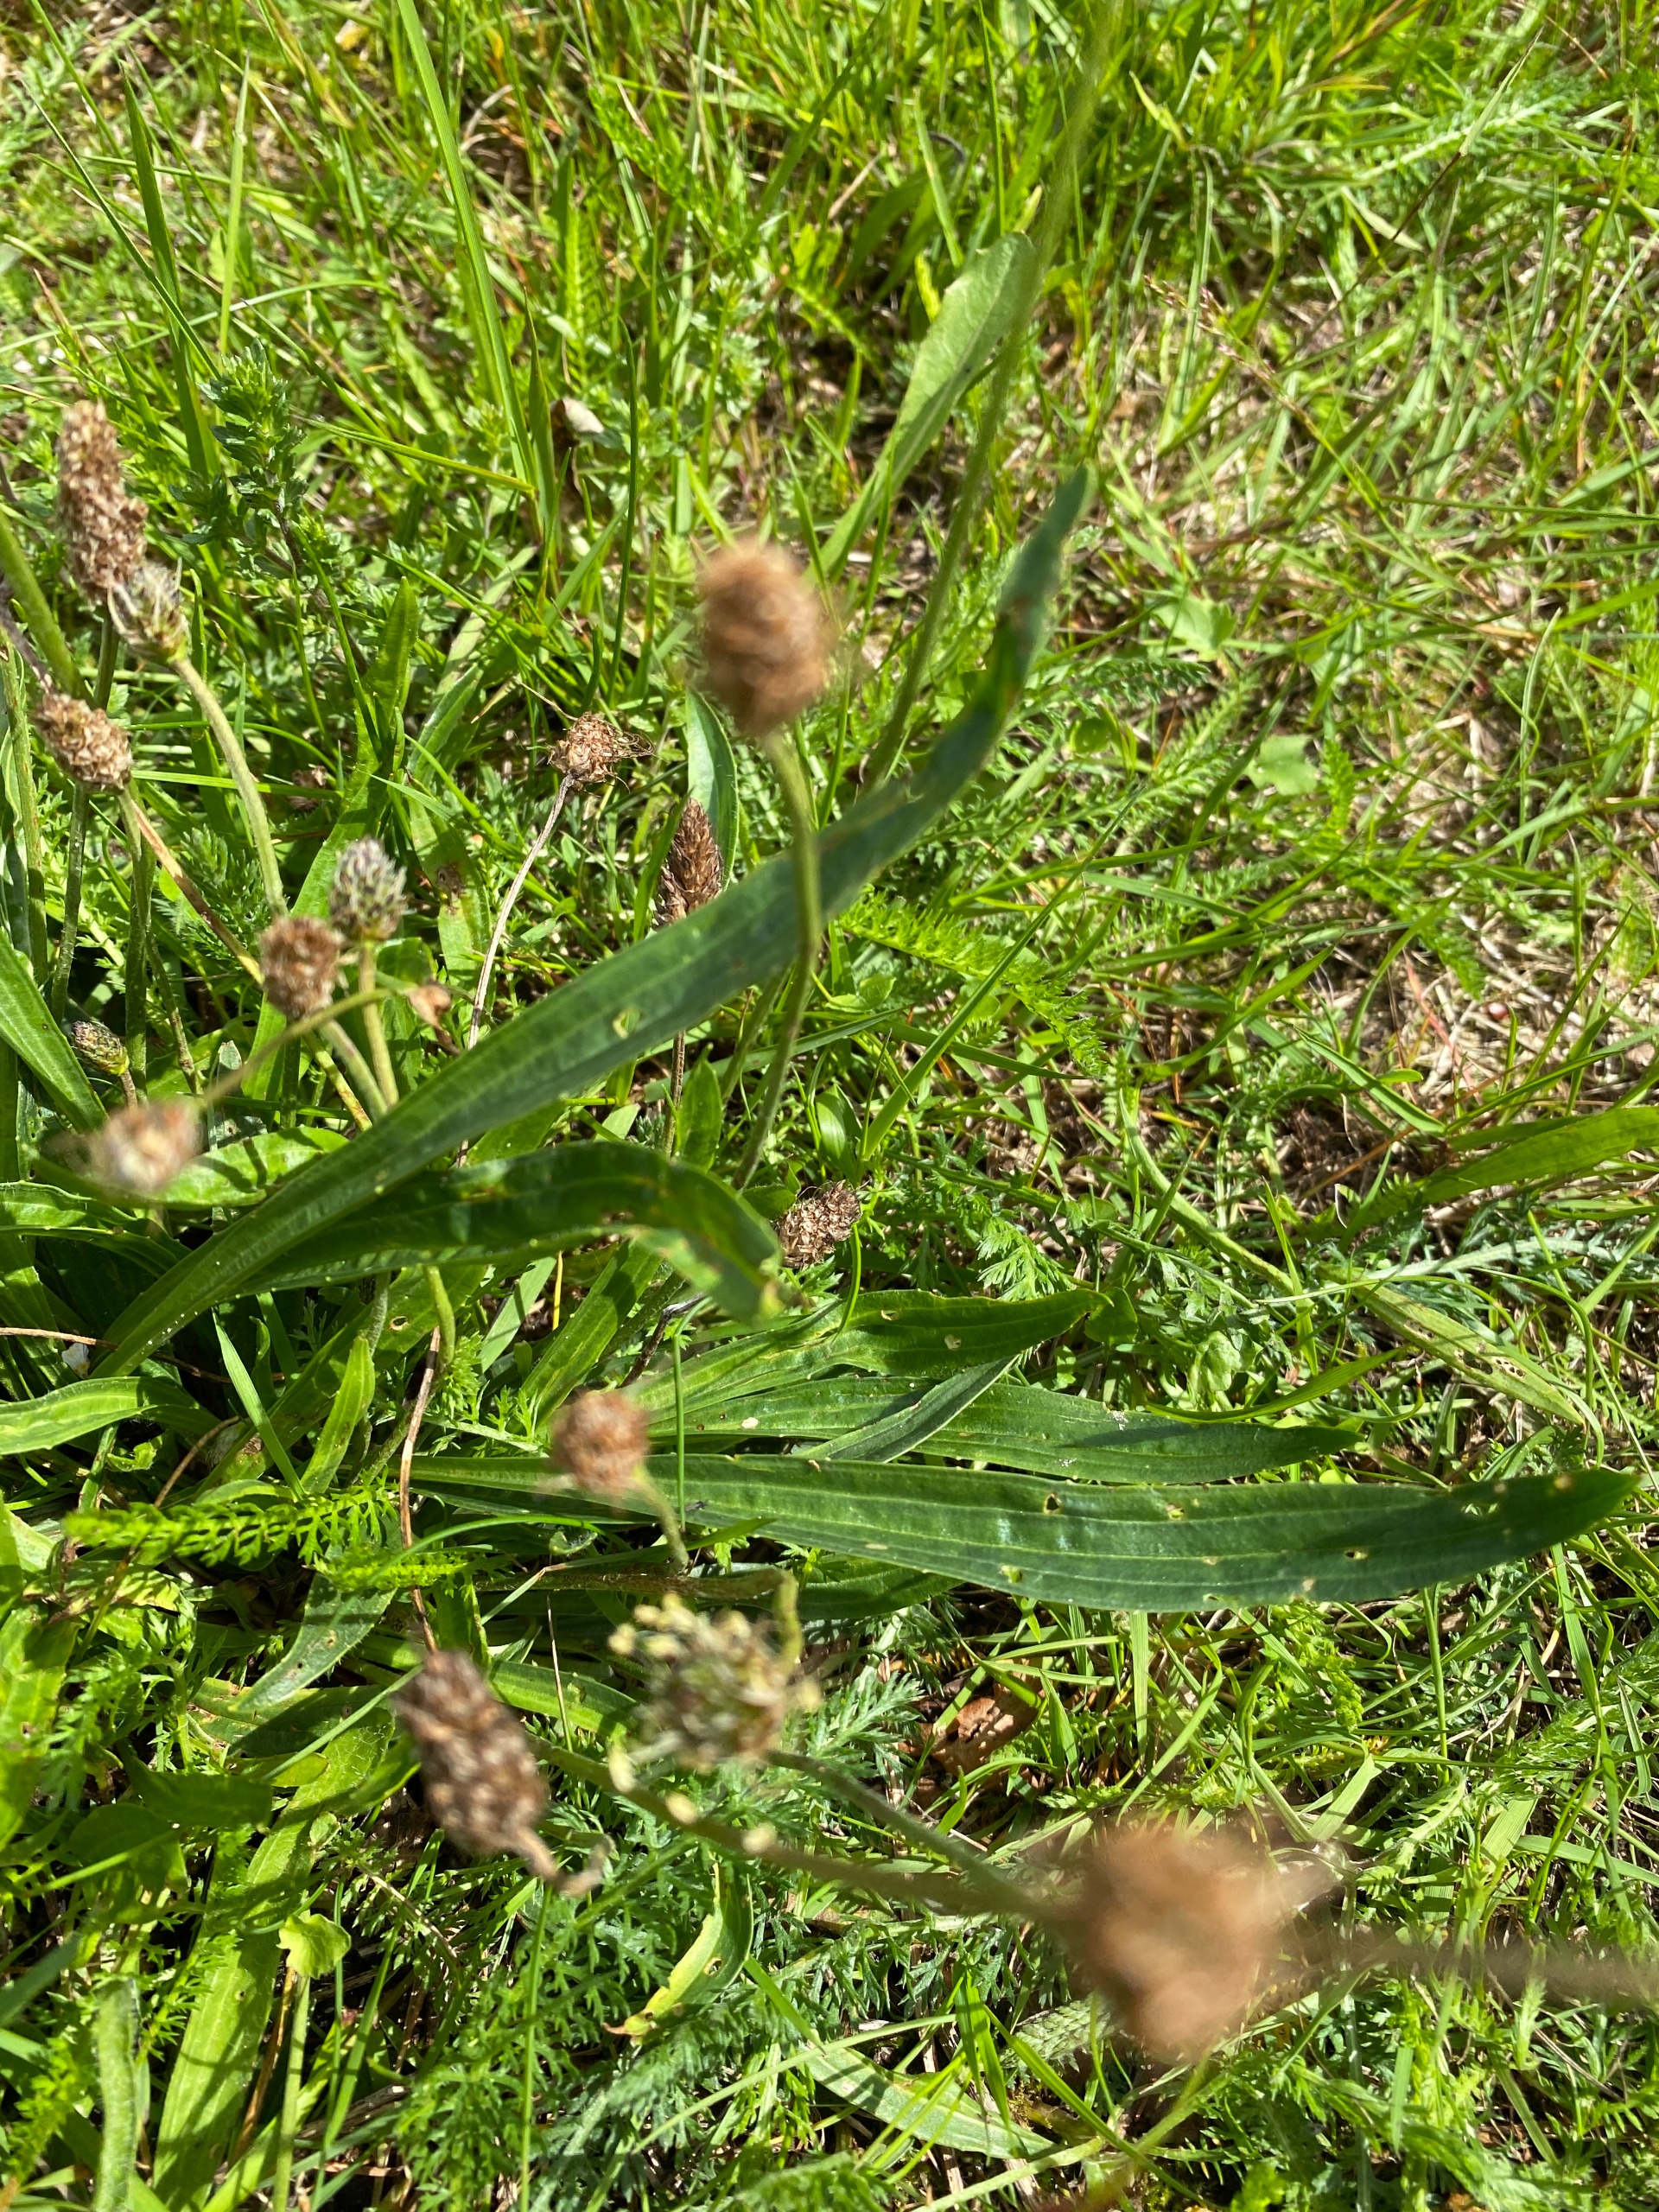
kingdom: Plantae
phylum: Tracheophyta
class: Magnoliopsida
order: Lamiales
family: Plantaginaceae
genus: Plantago
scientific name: Plantago lanceolata
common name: Lancet-vejbred
